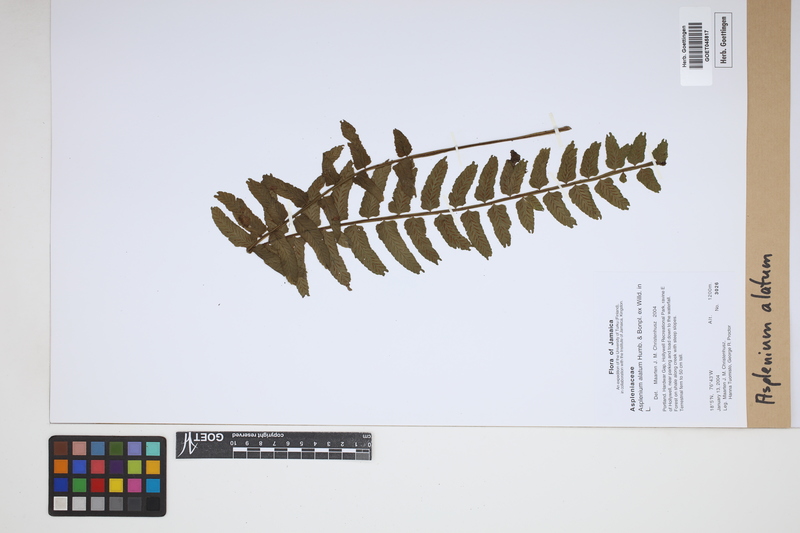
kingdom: Plantae
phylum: Tracheophyta
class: Polypodiopsida
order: Polypodiales
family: Aspleniaceae
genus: Asplenium
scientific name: Asplenium alatum
